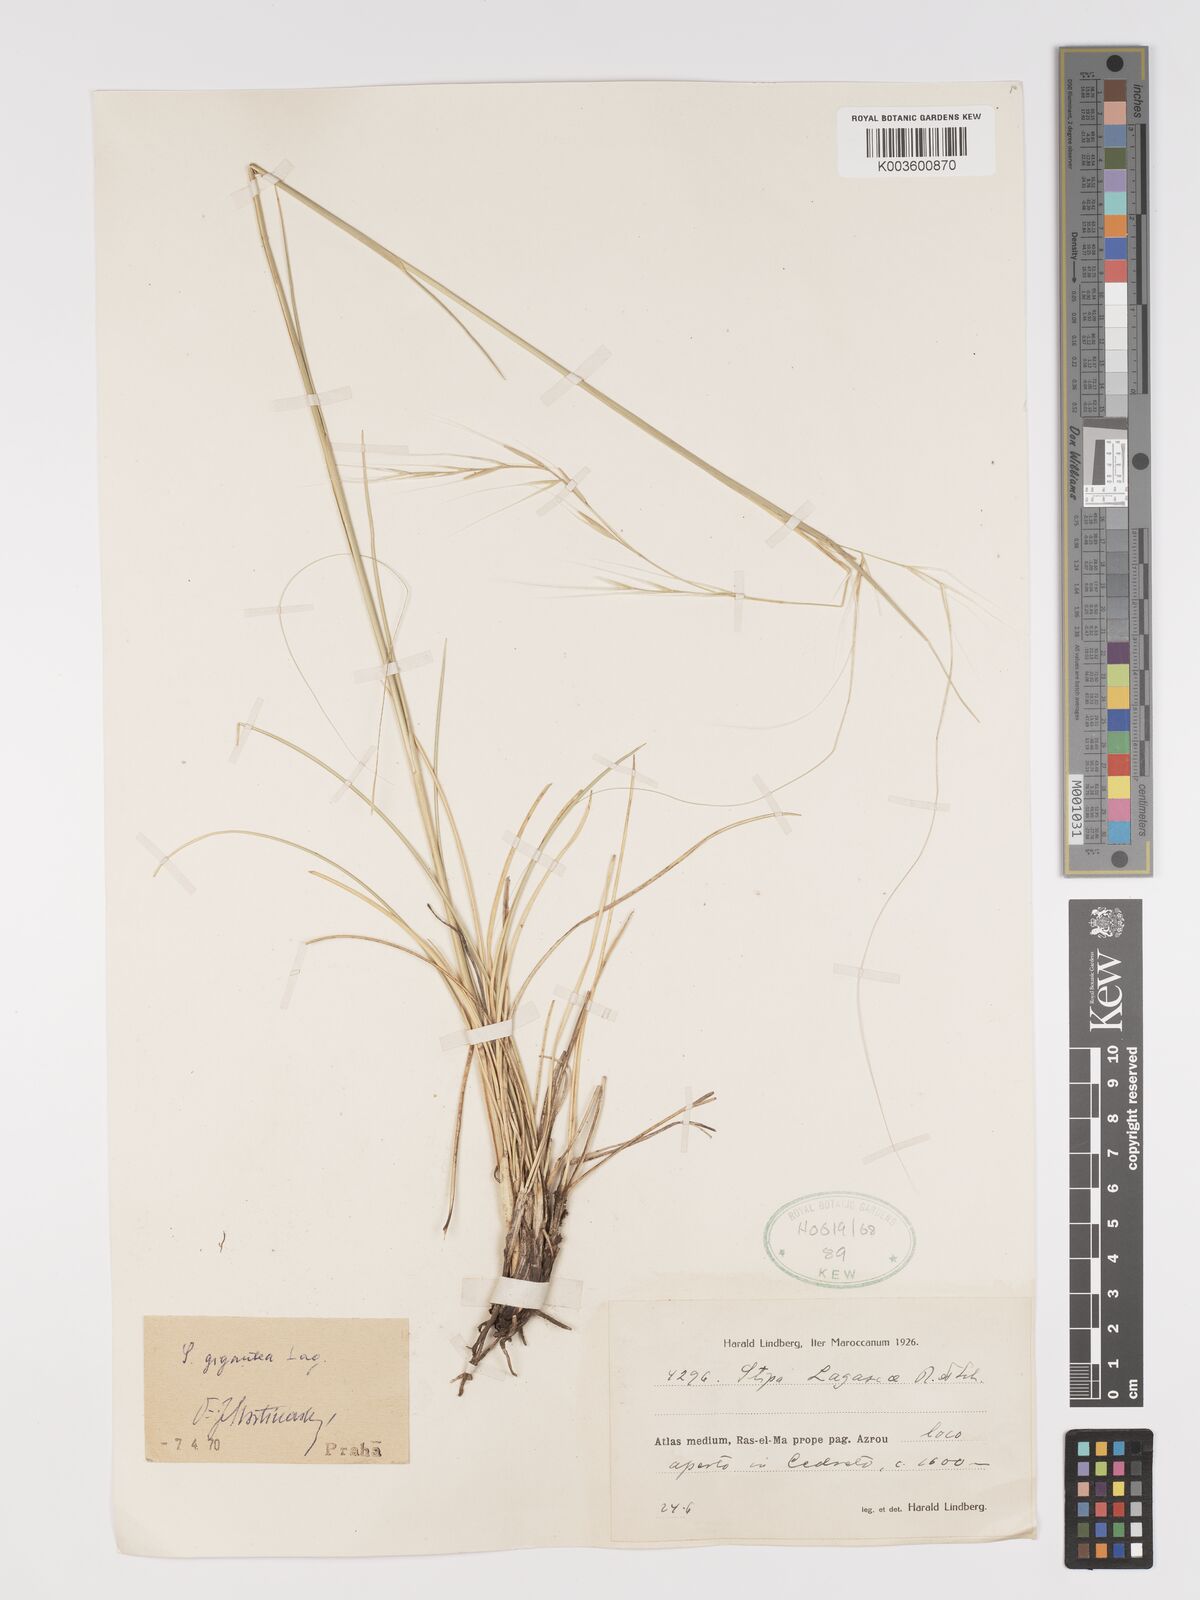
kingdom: Plantae
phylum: Tracheophyta
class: Liliopsida
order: Poales
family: Poaceae
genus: Stipa
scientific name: Stipa lagascae
